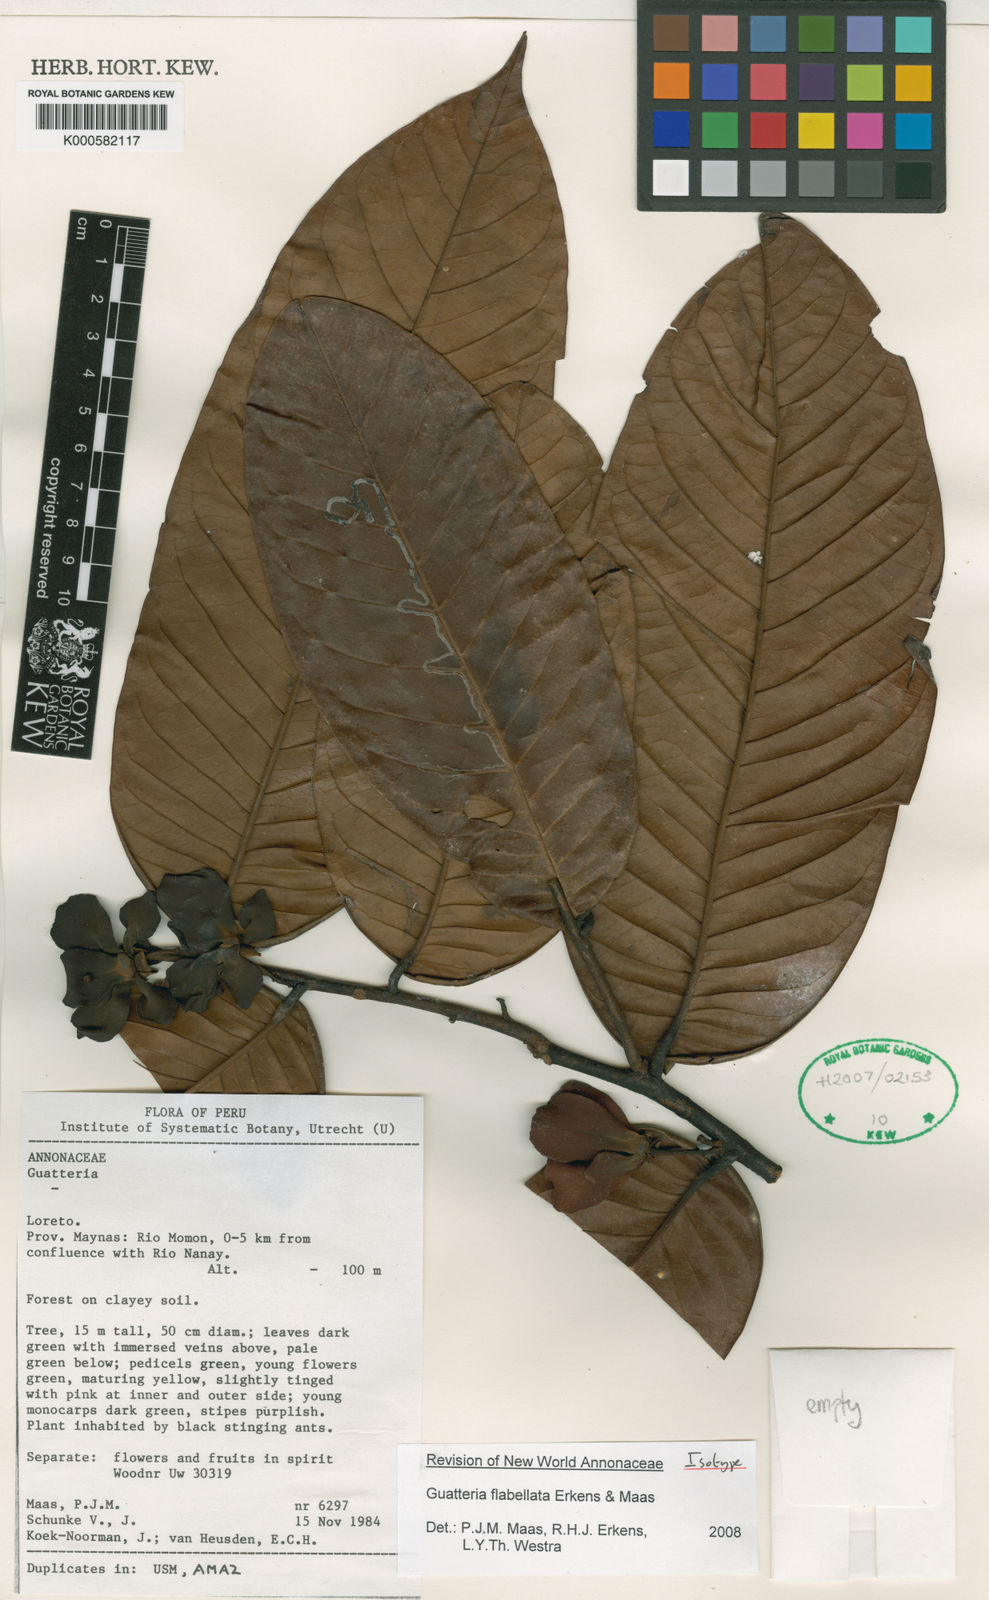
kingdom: Plantae
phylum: Tracheophyta
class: Magnoliopsida
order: Magnoliales
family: Annonaceae
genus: Guatteria
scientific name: Guatteria flabellata
